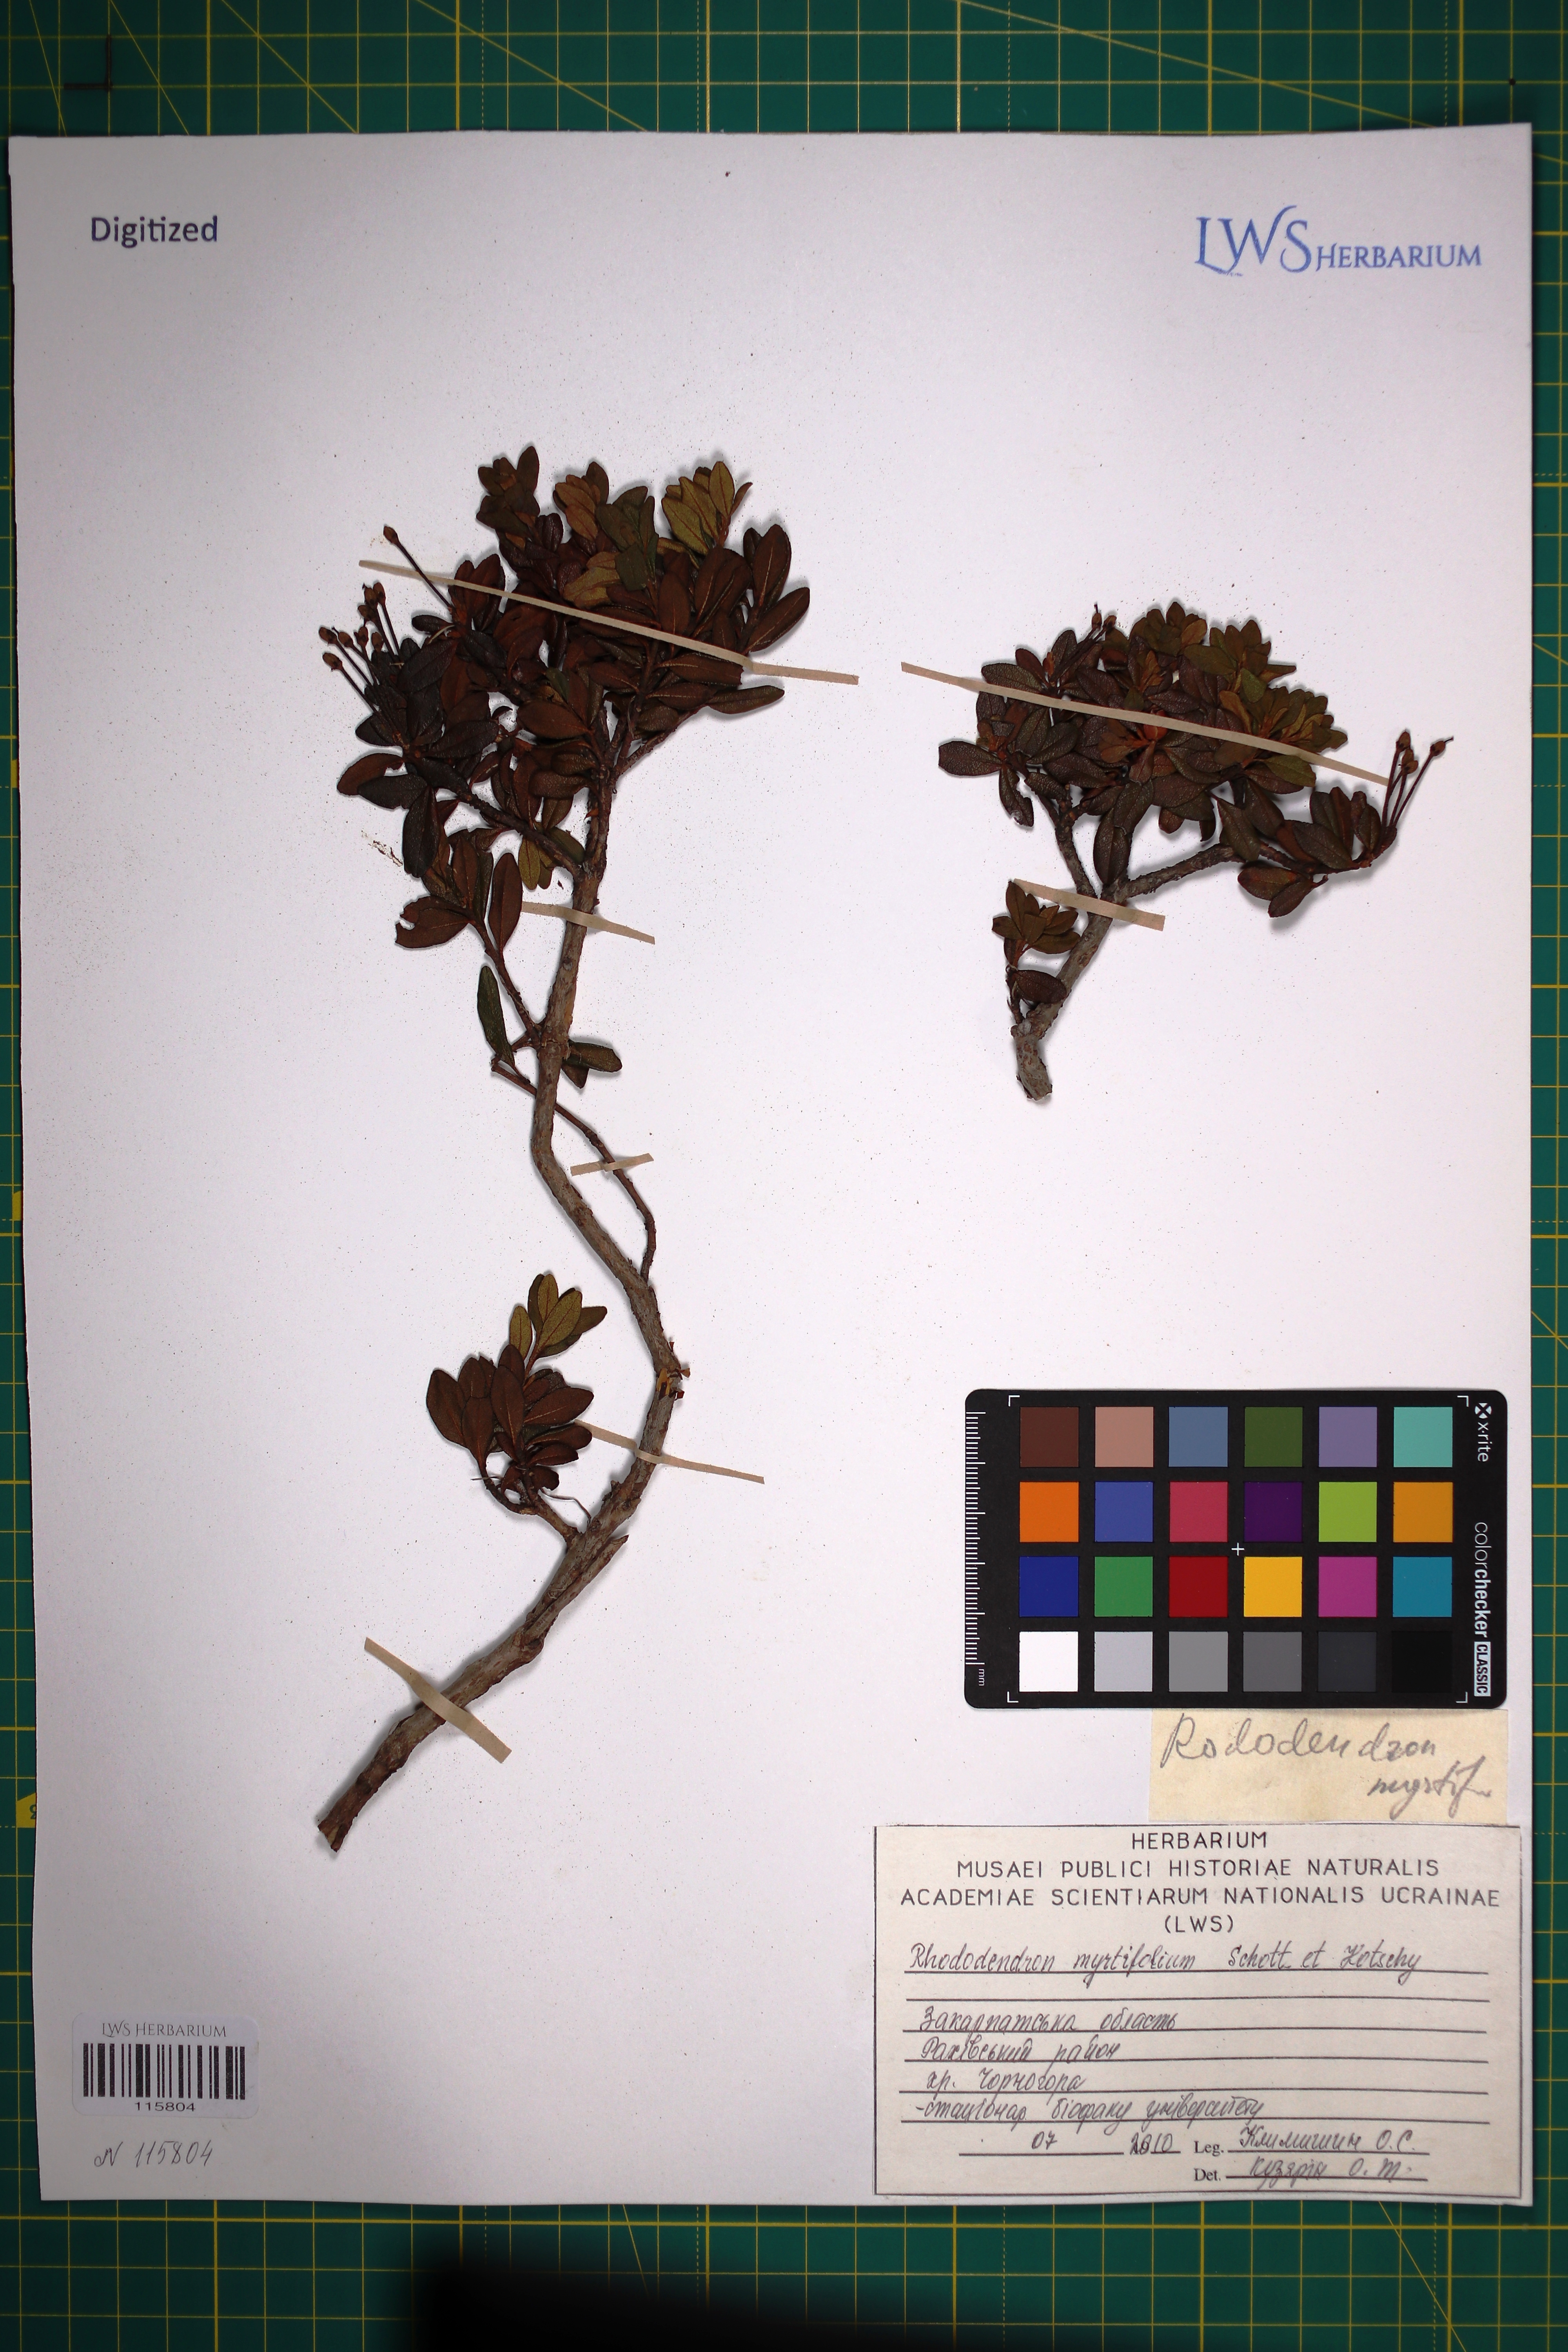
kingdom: Plantae
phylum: Tracheophyta
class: Magnoliopsida
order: Ericales
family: Ericaceae
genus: Rhododendron
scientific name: Rhododendron kotschyi
